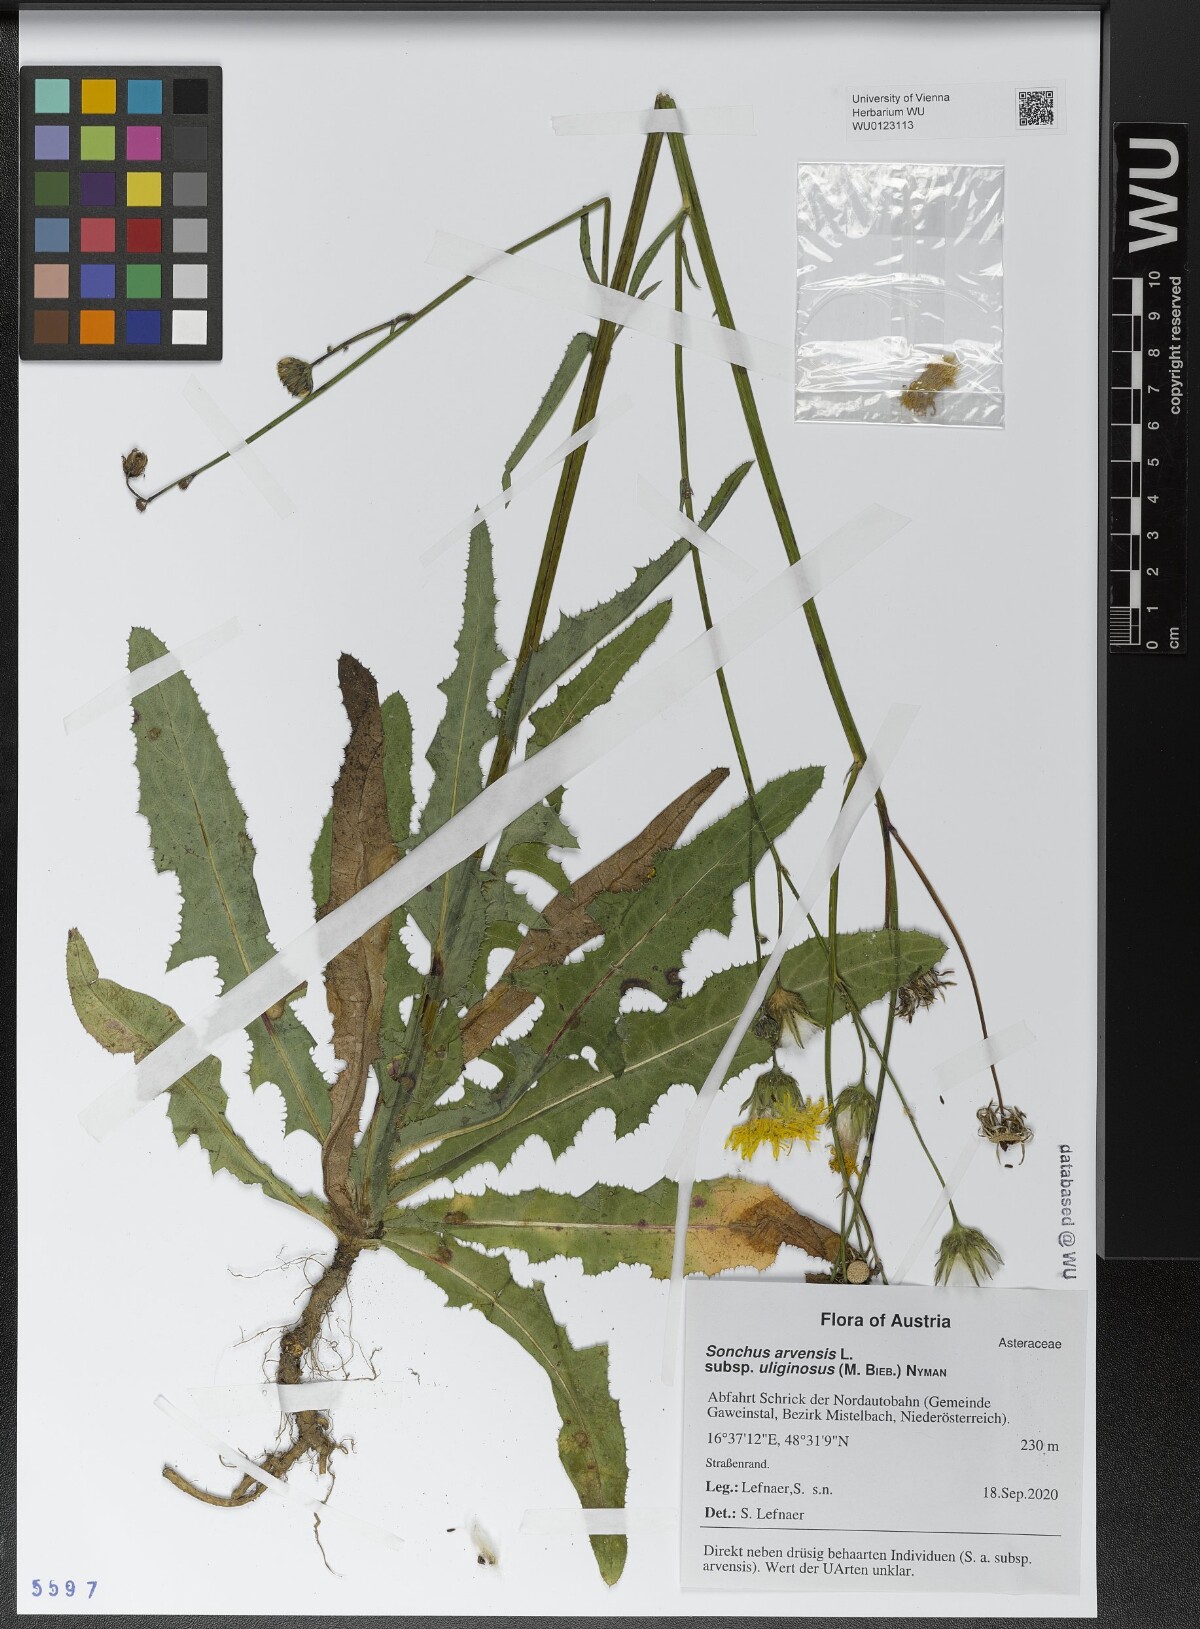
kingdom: Plantae
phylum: Tracheophyta
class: Magnoliopsida
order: Asterales
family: Asteraceae
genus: Sonchus
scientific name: Sonchus arvensis
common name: Perennial sow-thistle
